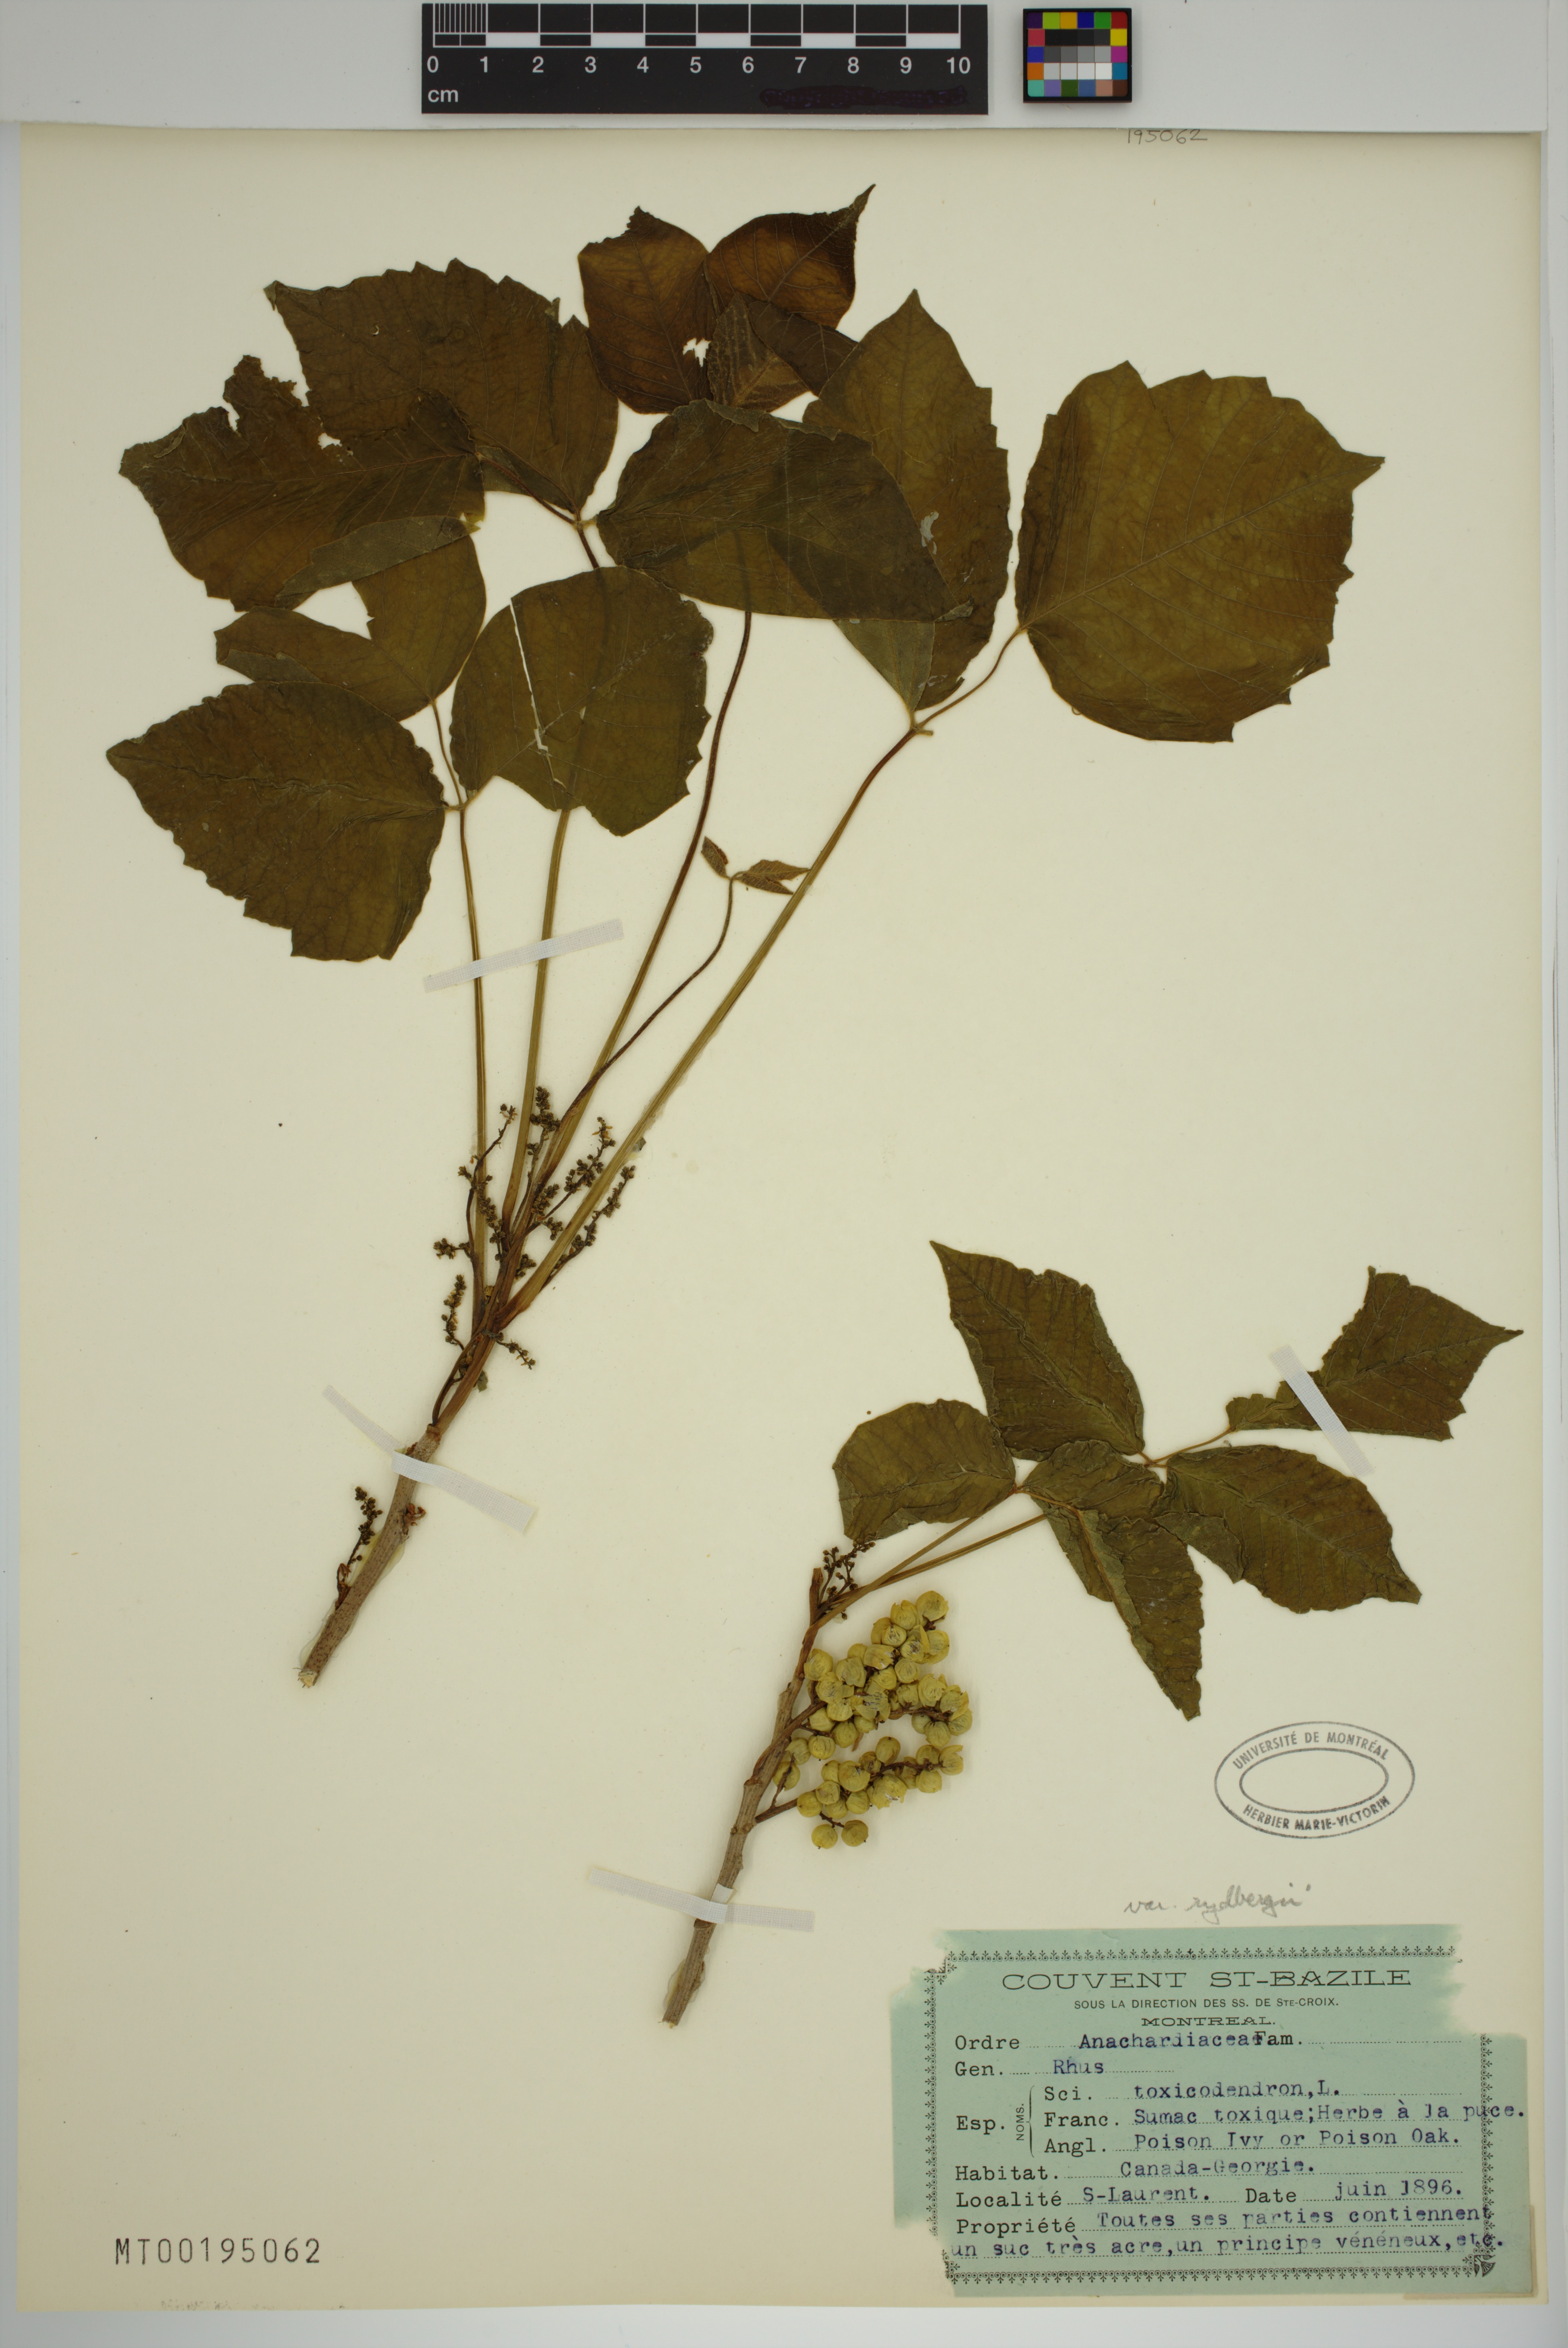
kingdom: Plantae
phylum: Tracheophyta
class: Magnoliopsida
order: Sapindales
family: Anacardiaceae
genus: Toxicodendron
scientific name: Toxicodendron rydbergii
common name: Rydberg's poison-ivy
